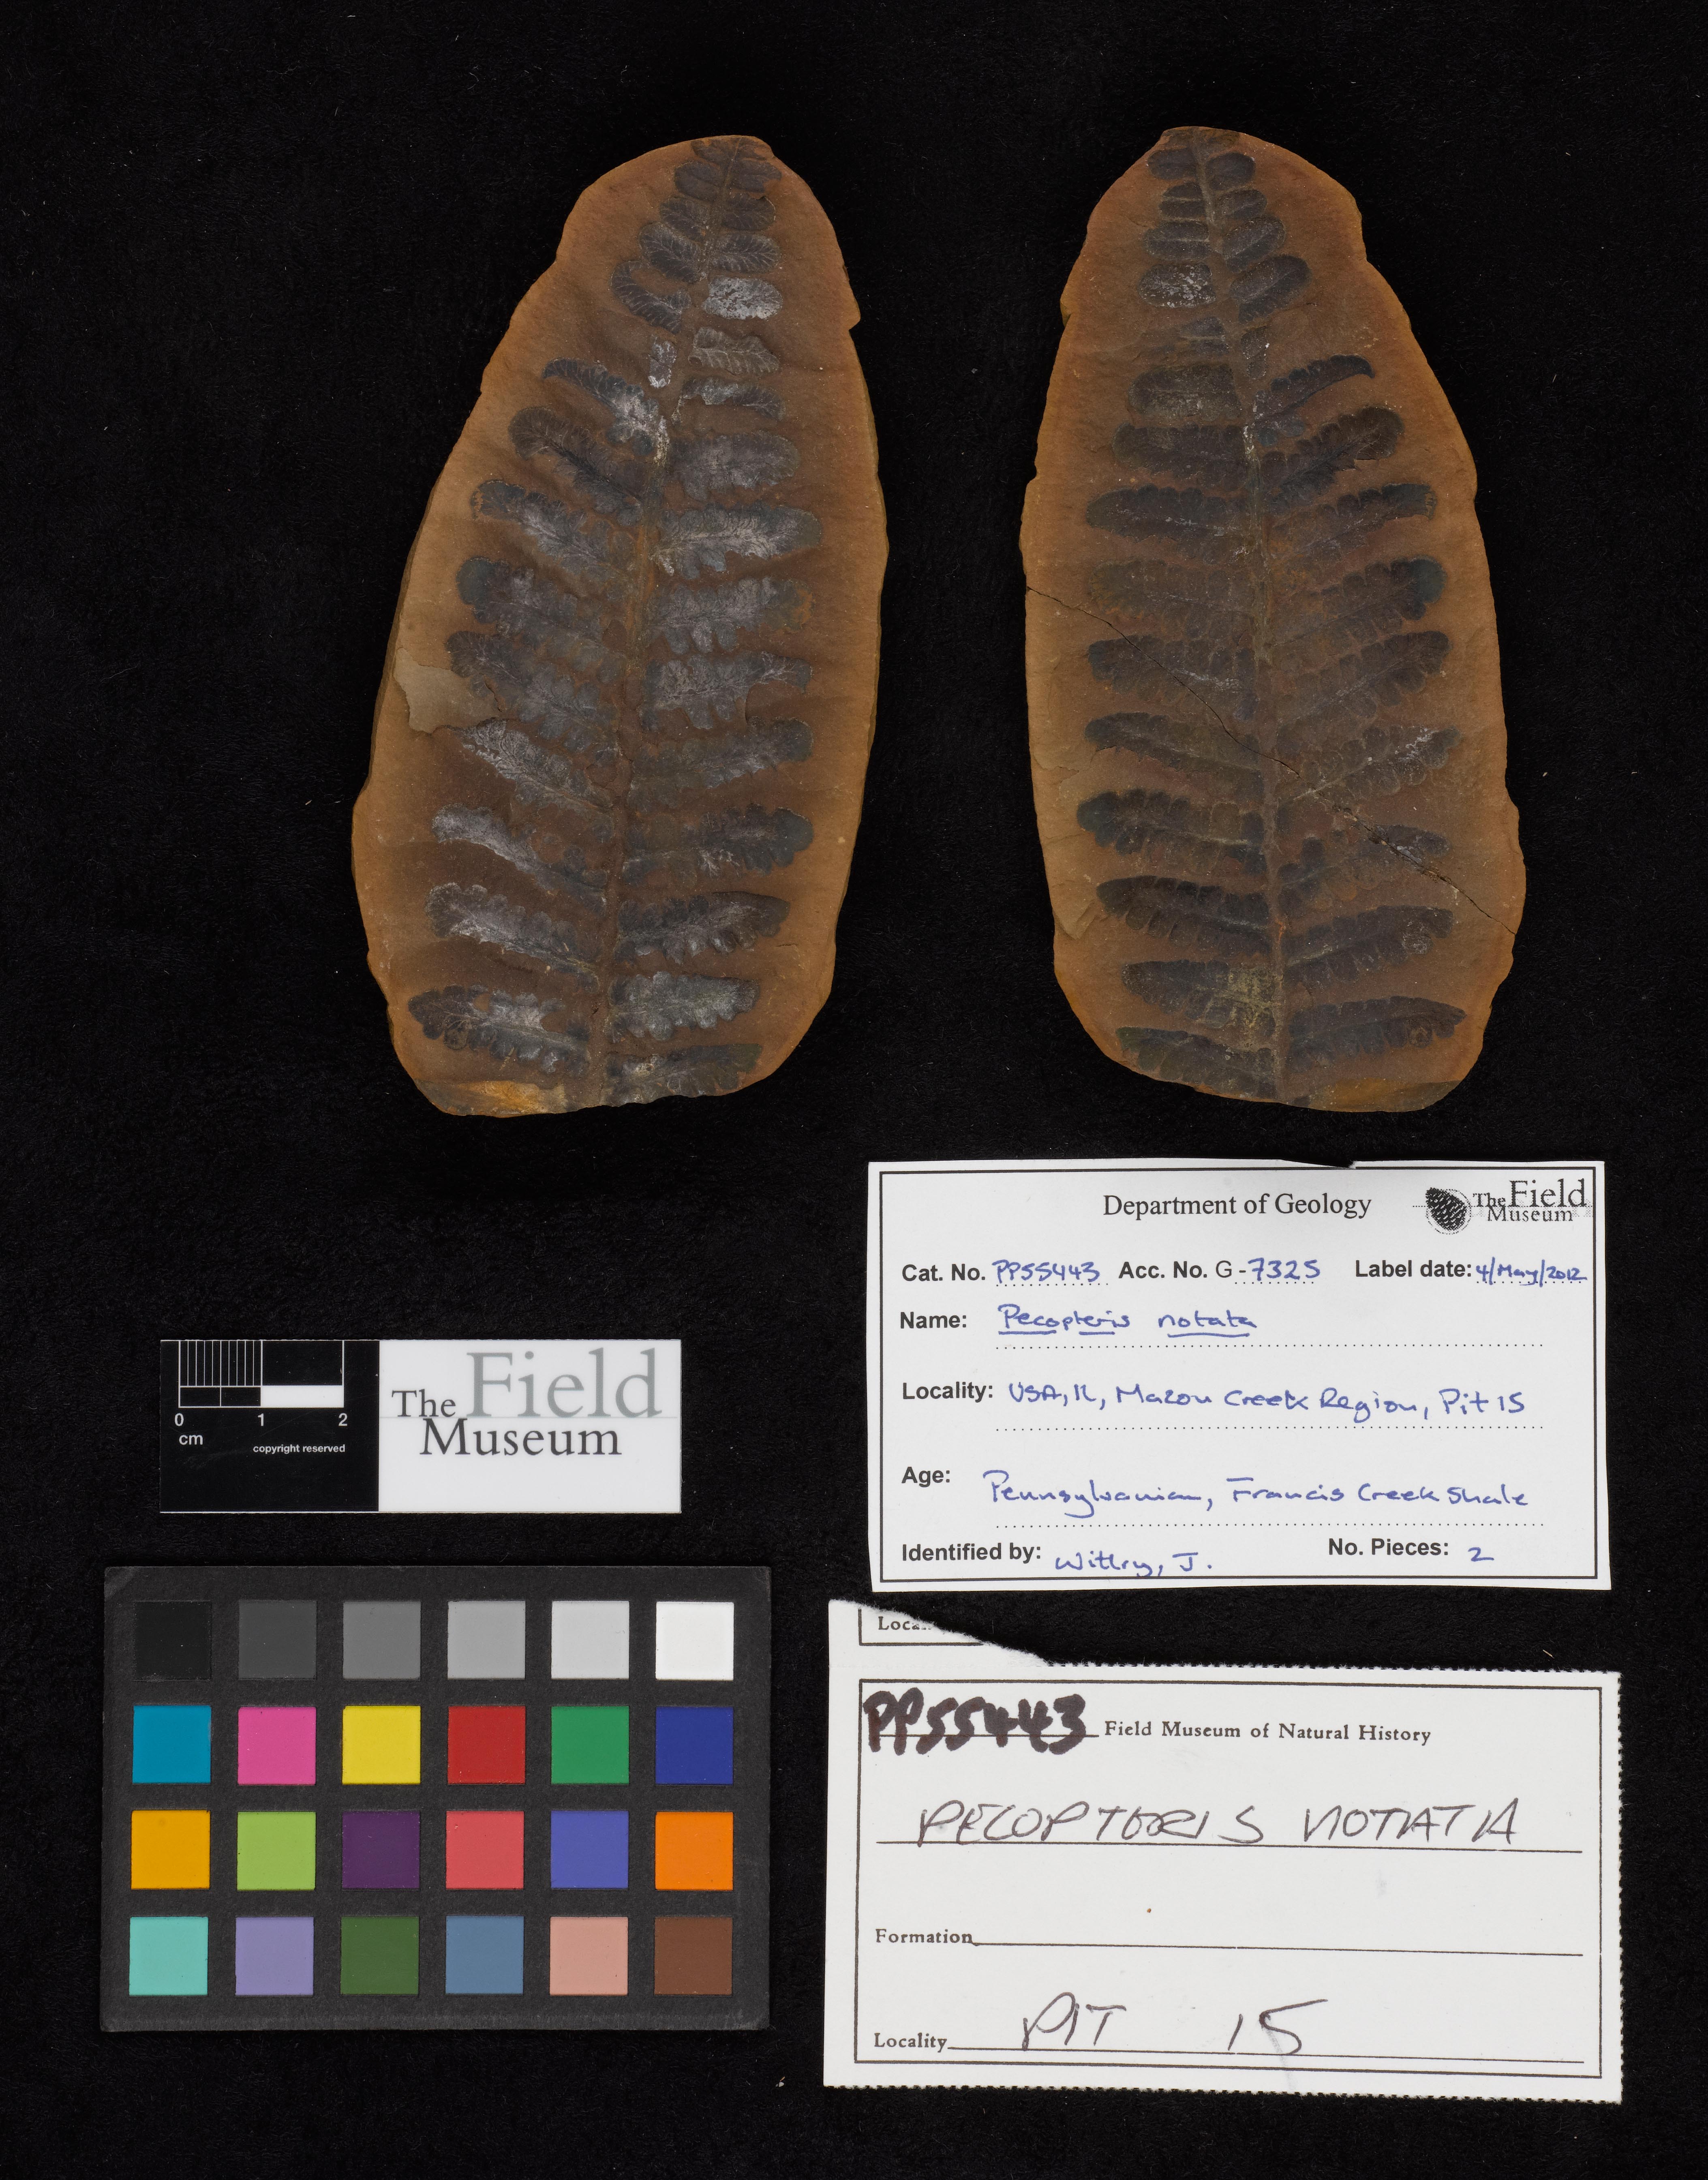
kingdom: Plantae
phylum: Tracheophyta
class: Polypodiopsida
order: Marattiales
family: Asterothecaceae
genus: Pecopteris
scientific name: Pecopteris
